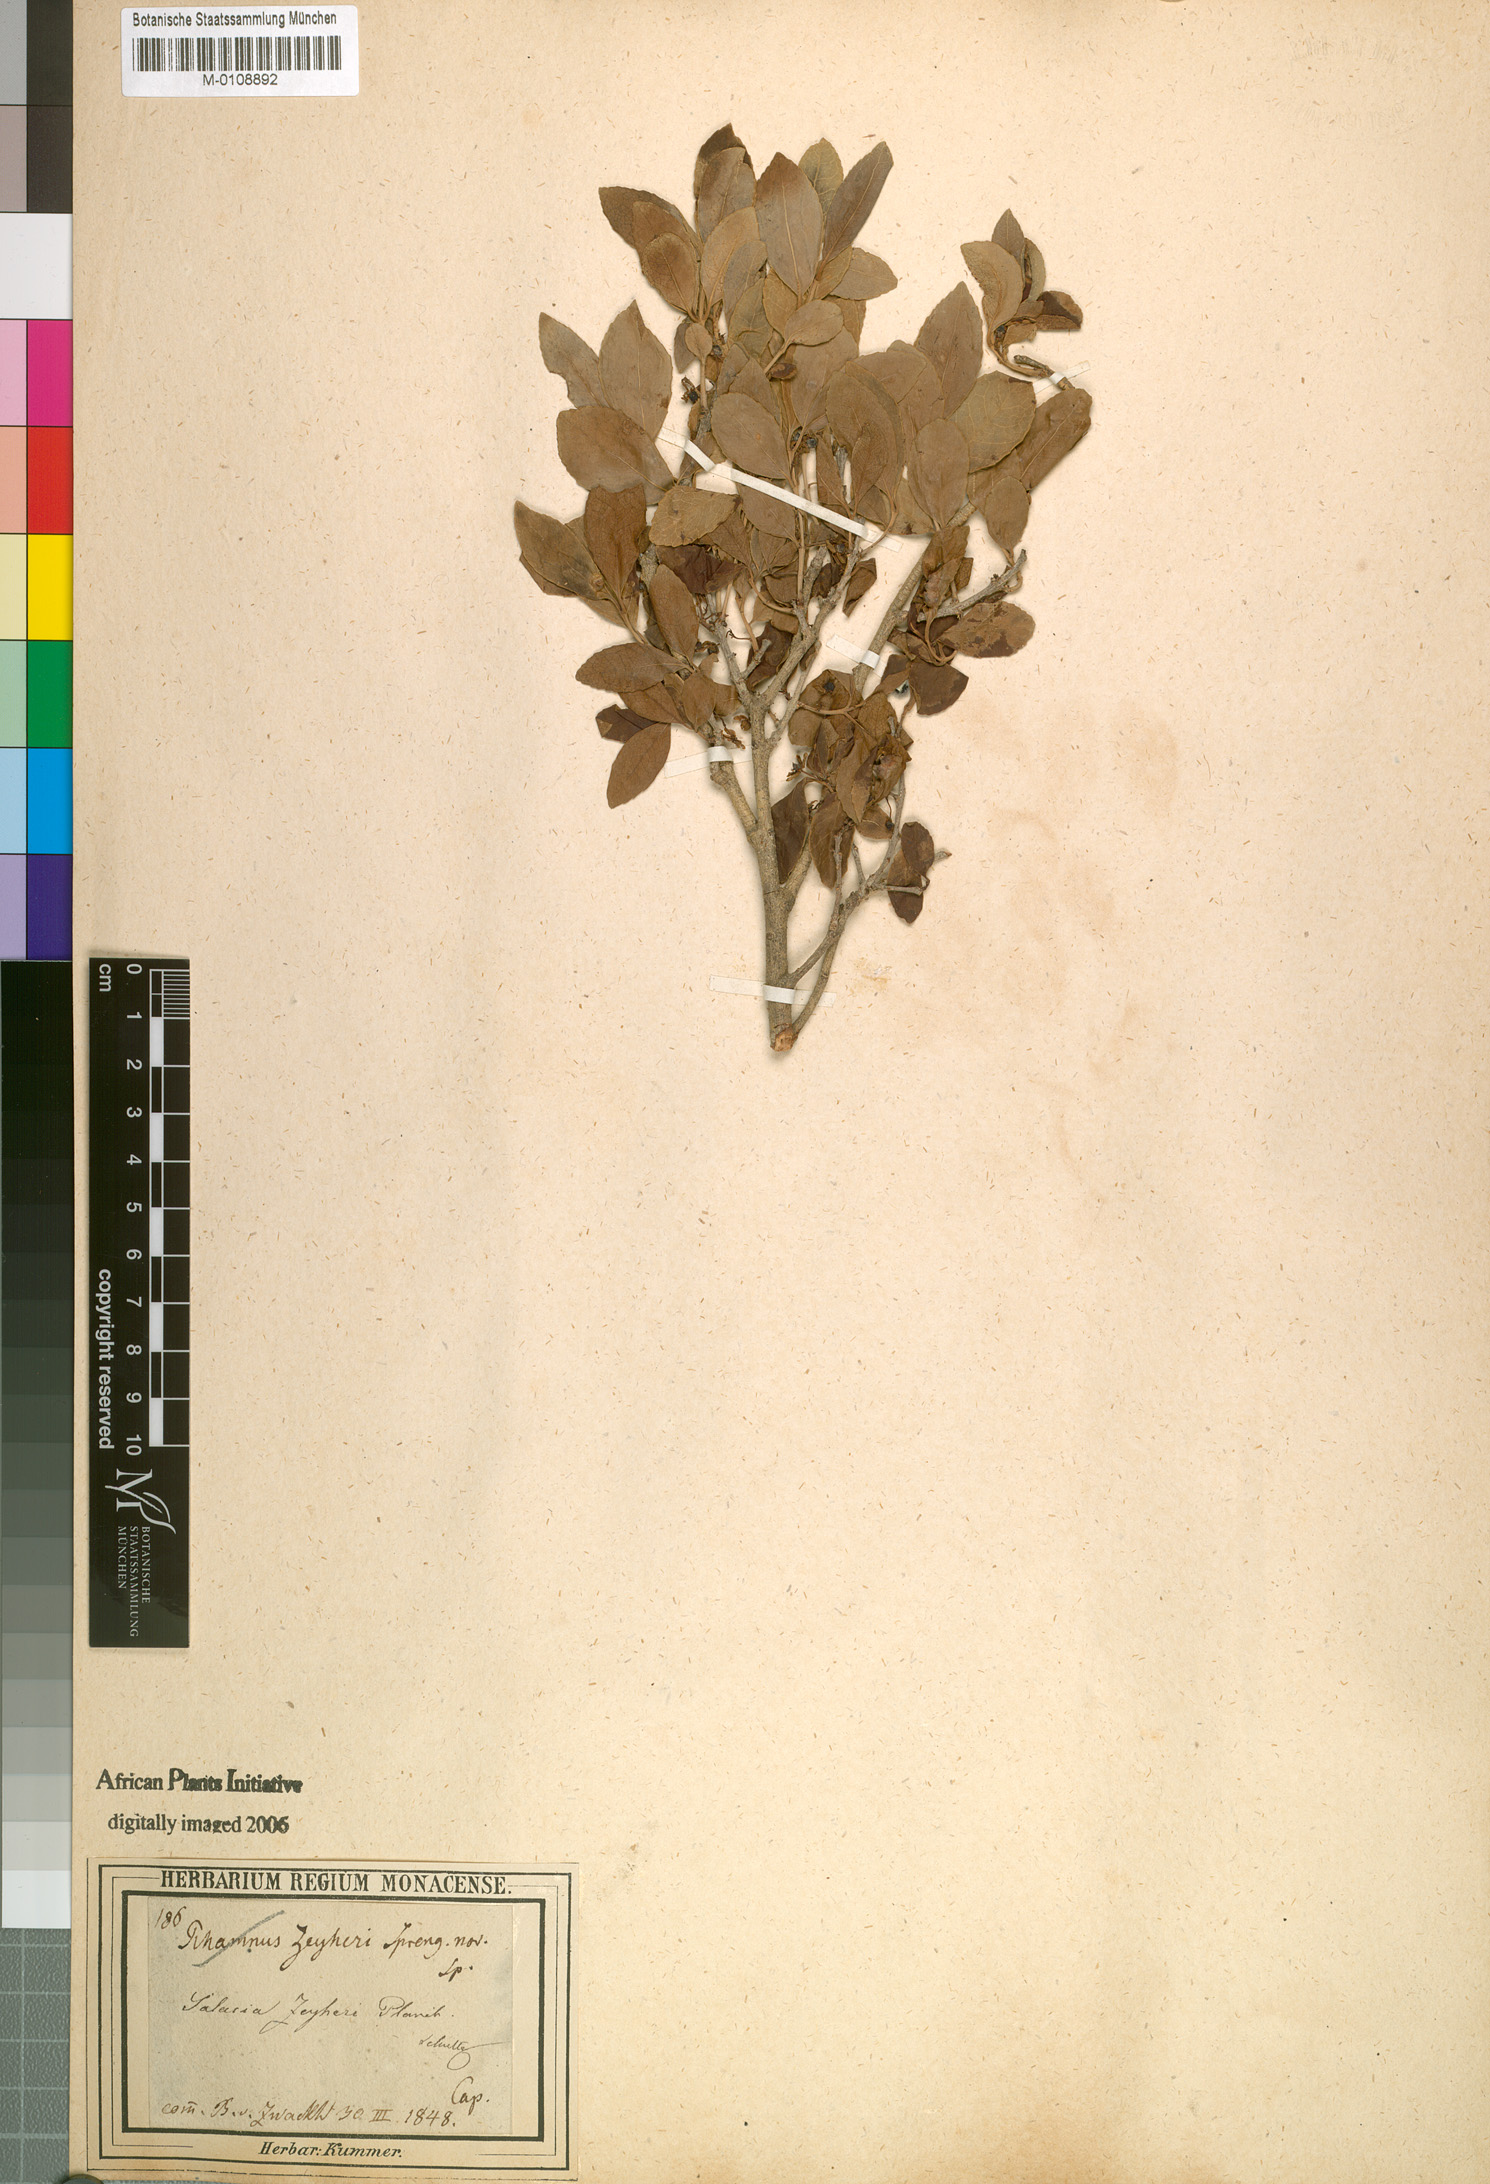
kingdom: Plantae
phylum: Tracheophyta
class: Magnoliopsida
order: Celastrales
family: Celastraceae
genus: Elaeodendron
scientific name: Elaeodendron zeyheri
